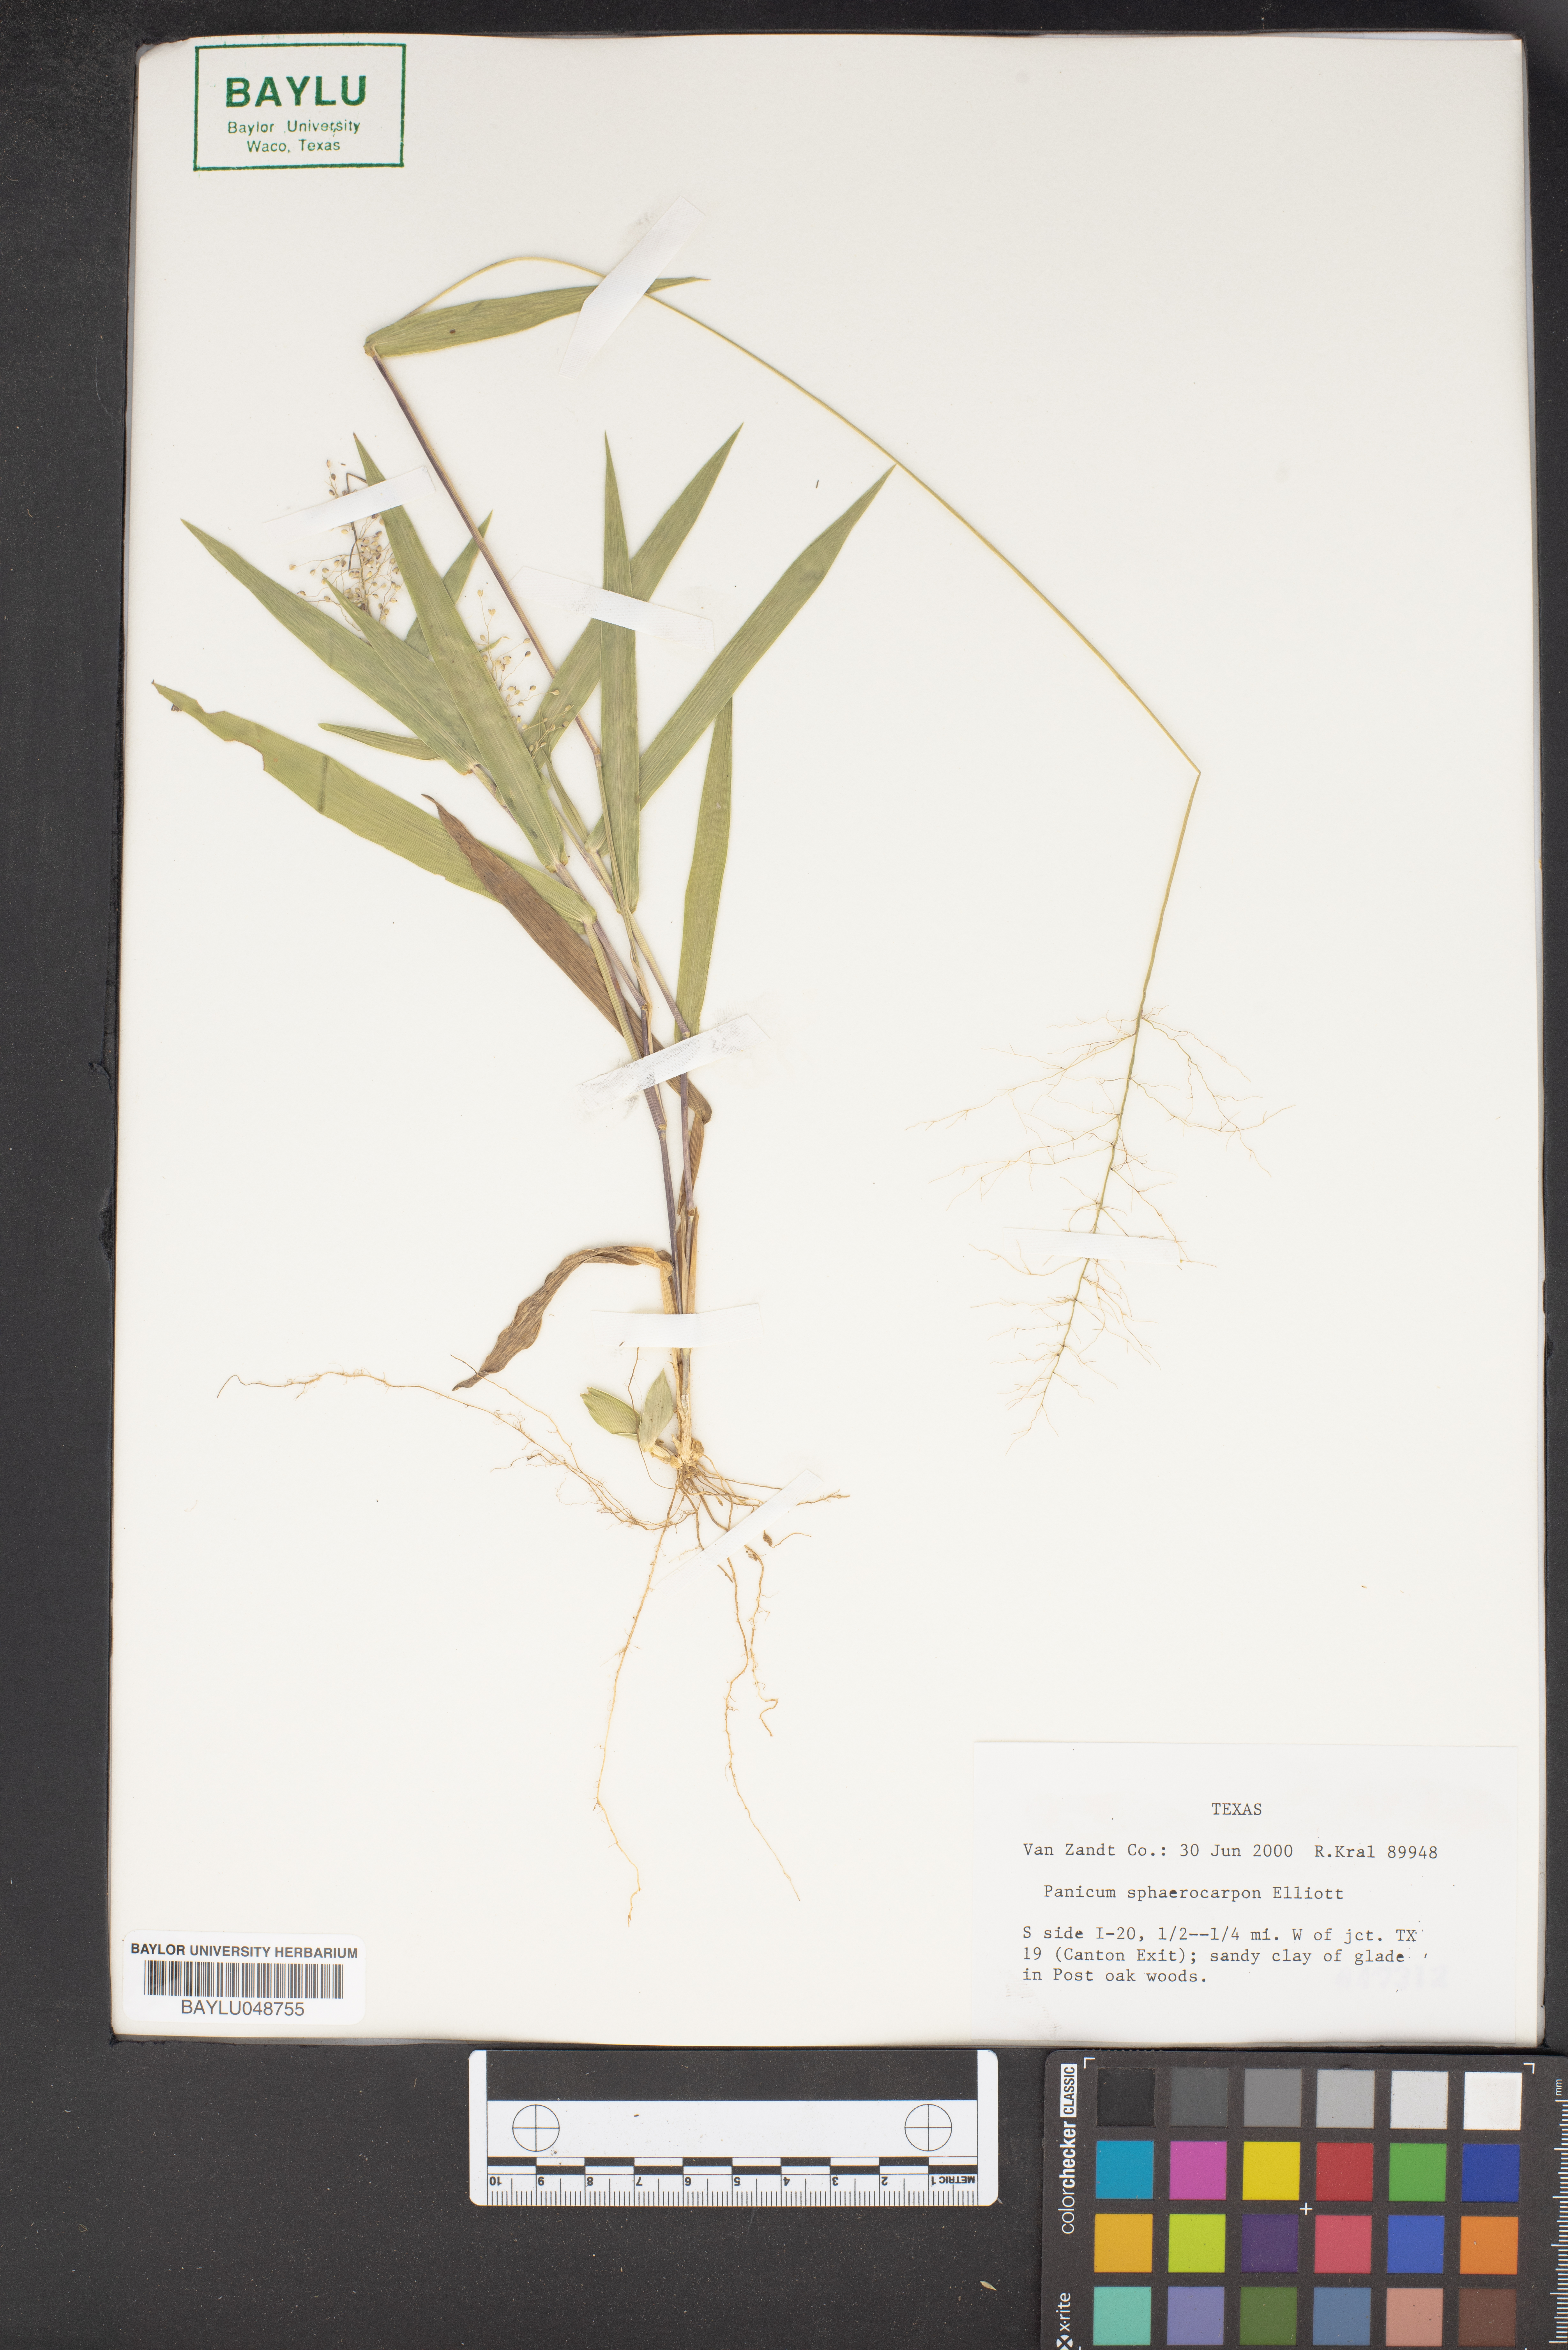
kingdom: Plantae
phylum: Tracheophyta
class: Liliopsida
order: Poales
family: Poaceae
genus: Dichanthelium
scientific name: Dichanthelium sphaerocarpon
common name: Round-fruited panicgrass
